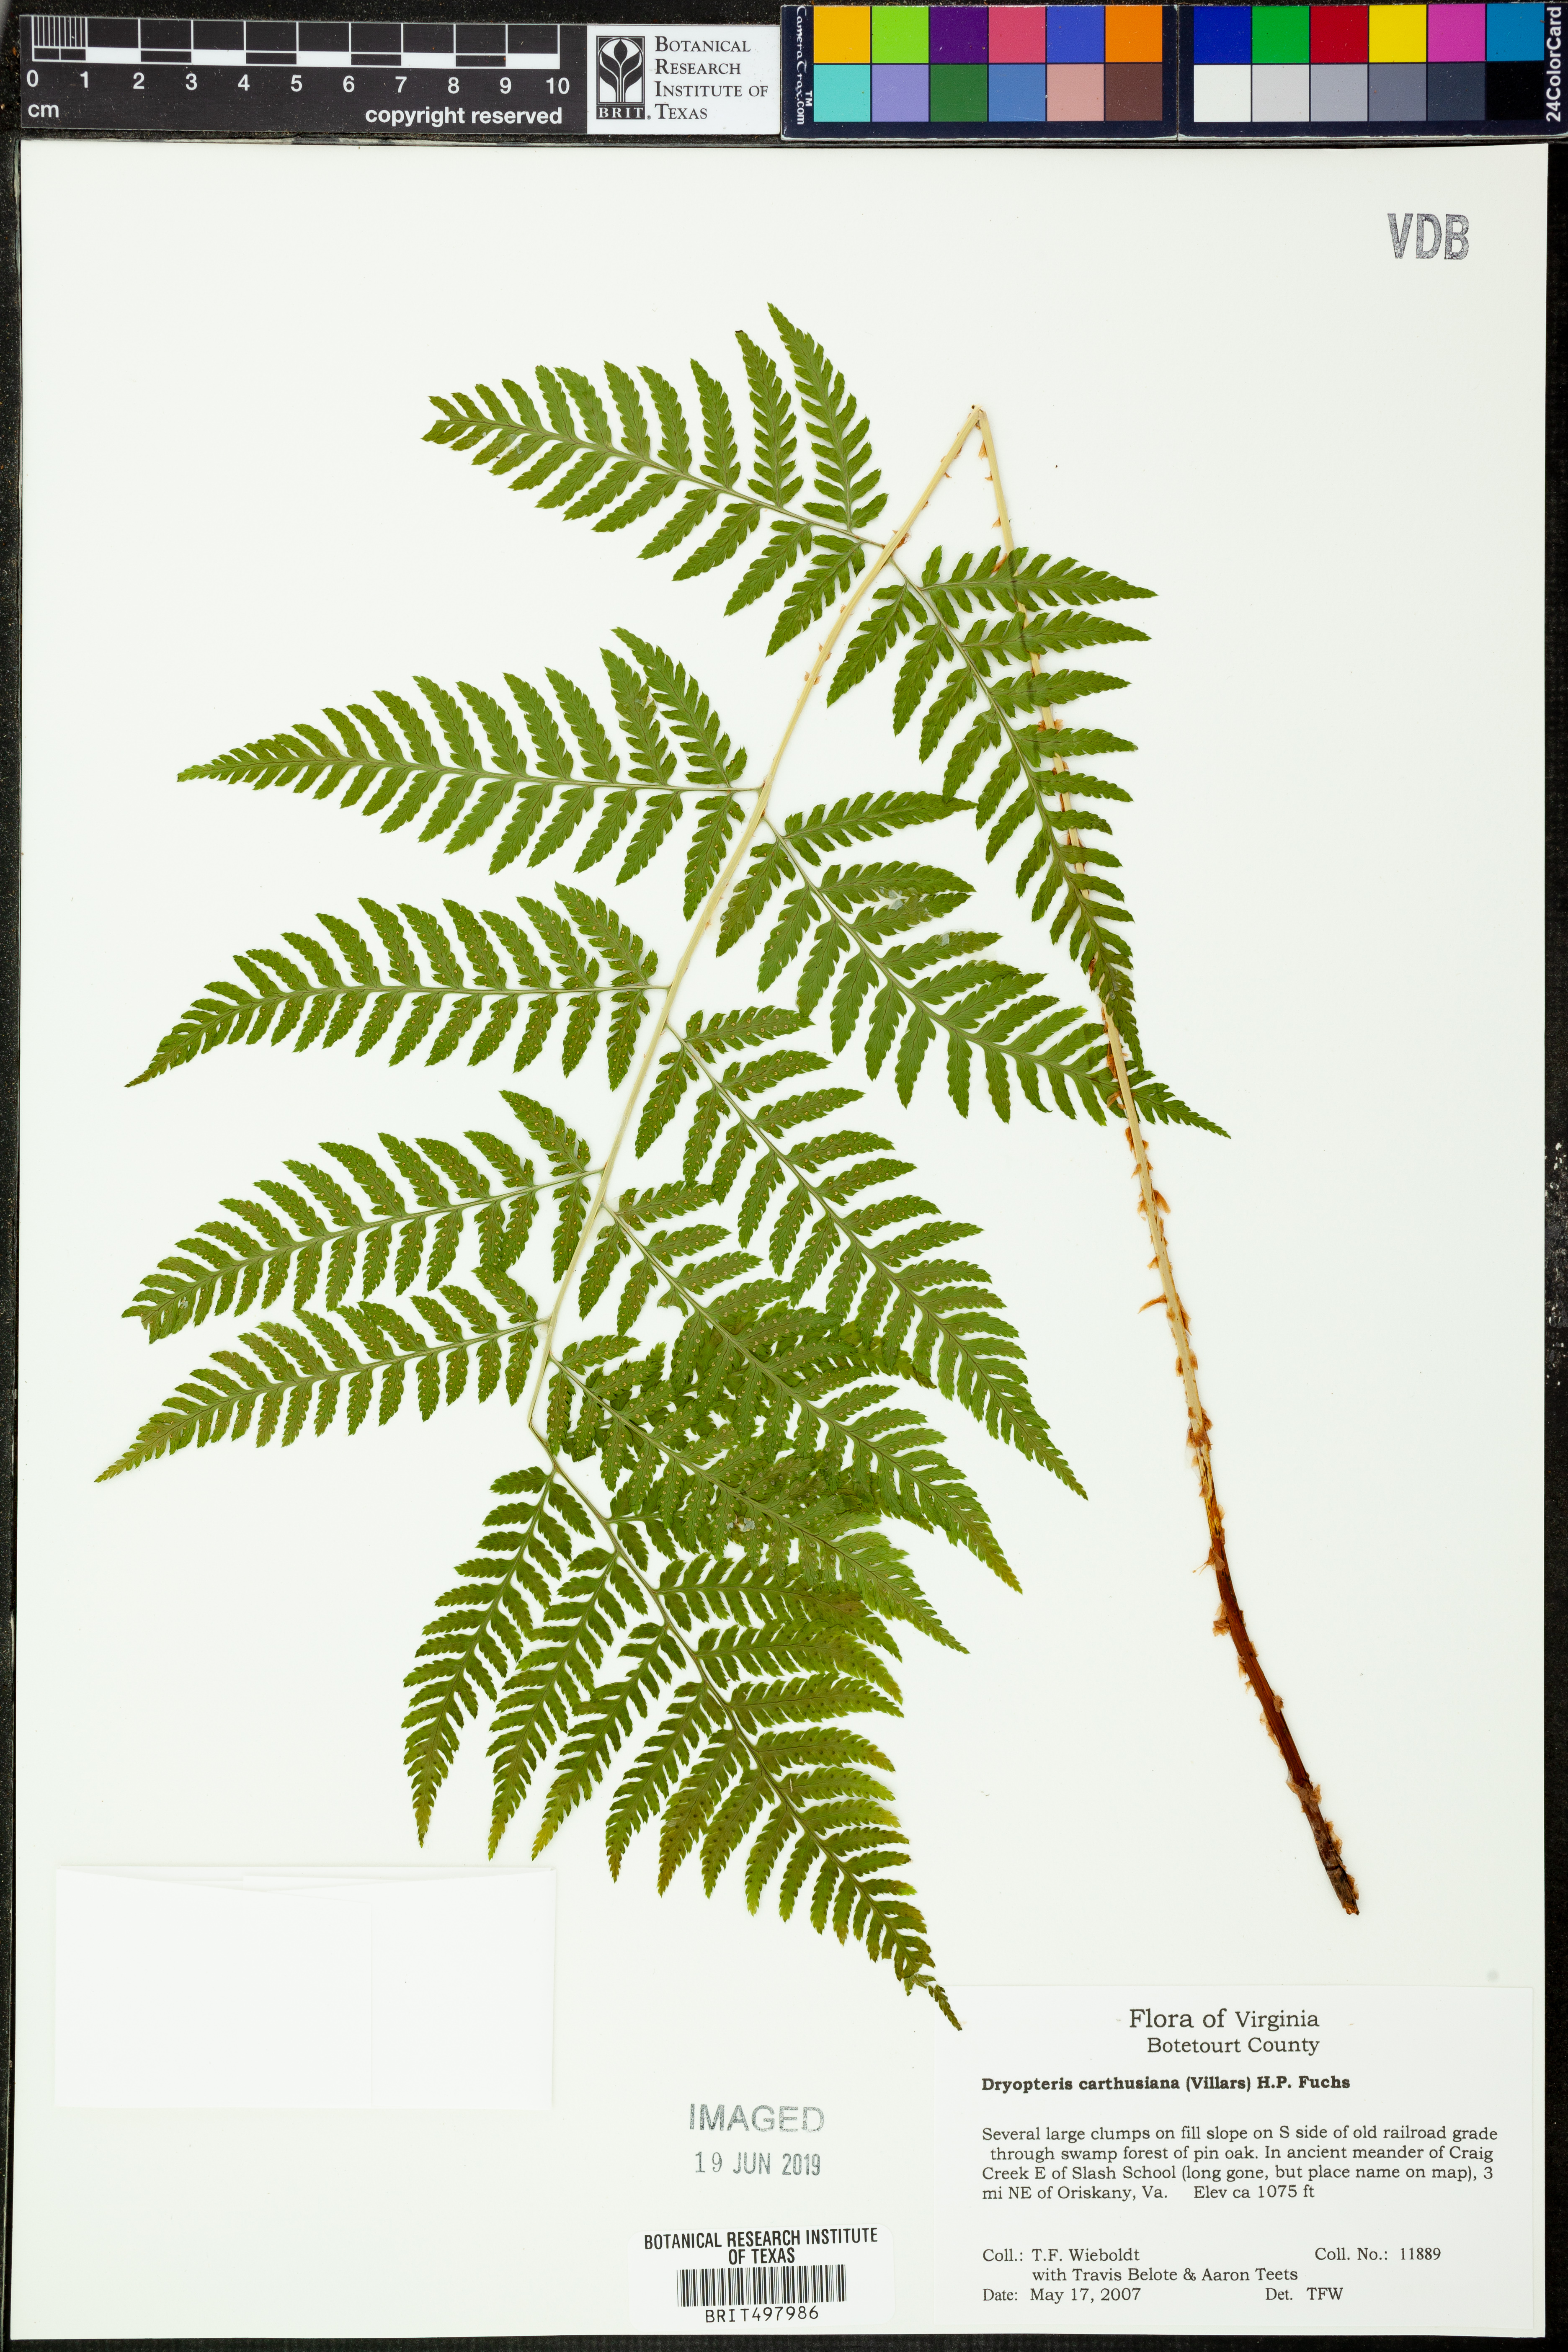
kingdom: Plantae
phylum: Tracheophyta
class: Polypodiopsida
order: Polypodiales
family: Dryopteridaceae
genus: Dryopteris
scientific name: Dryopteris carthusiana
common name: Narrow buckler-fern
